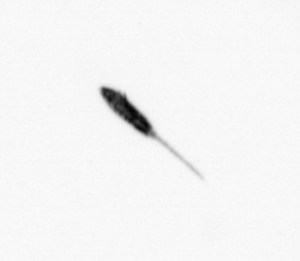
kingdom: Animalia
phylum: Arthropoda
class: Copepoda
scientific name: Copepoda
